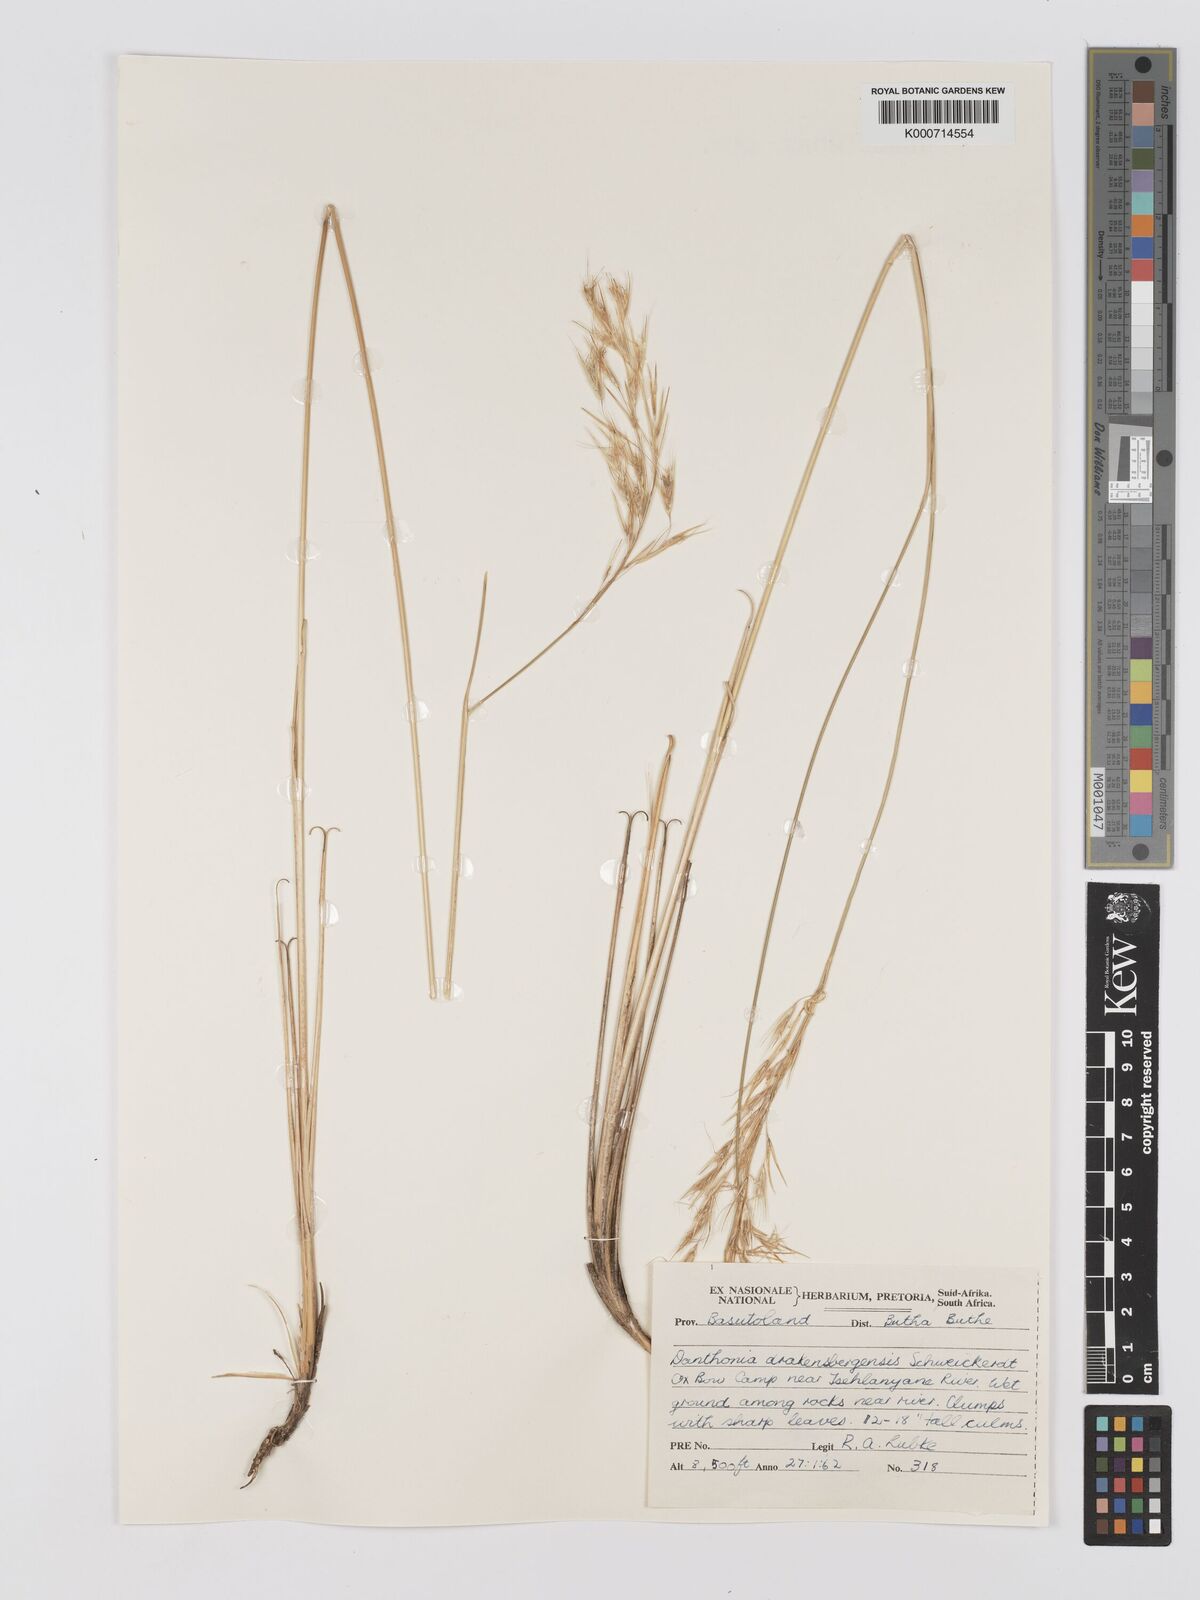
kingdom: Plantae
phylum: Tracheophyta
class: Liliopsida
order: Poales
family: Poaceae
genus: Rytidosperma
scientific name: Rytidosperma
